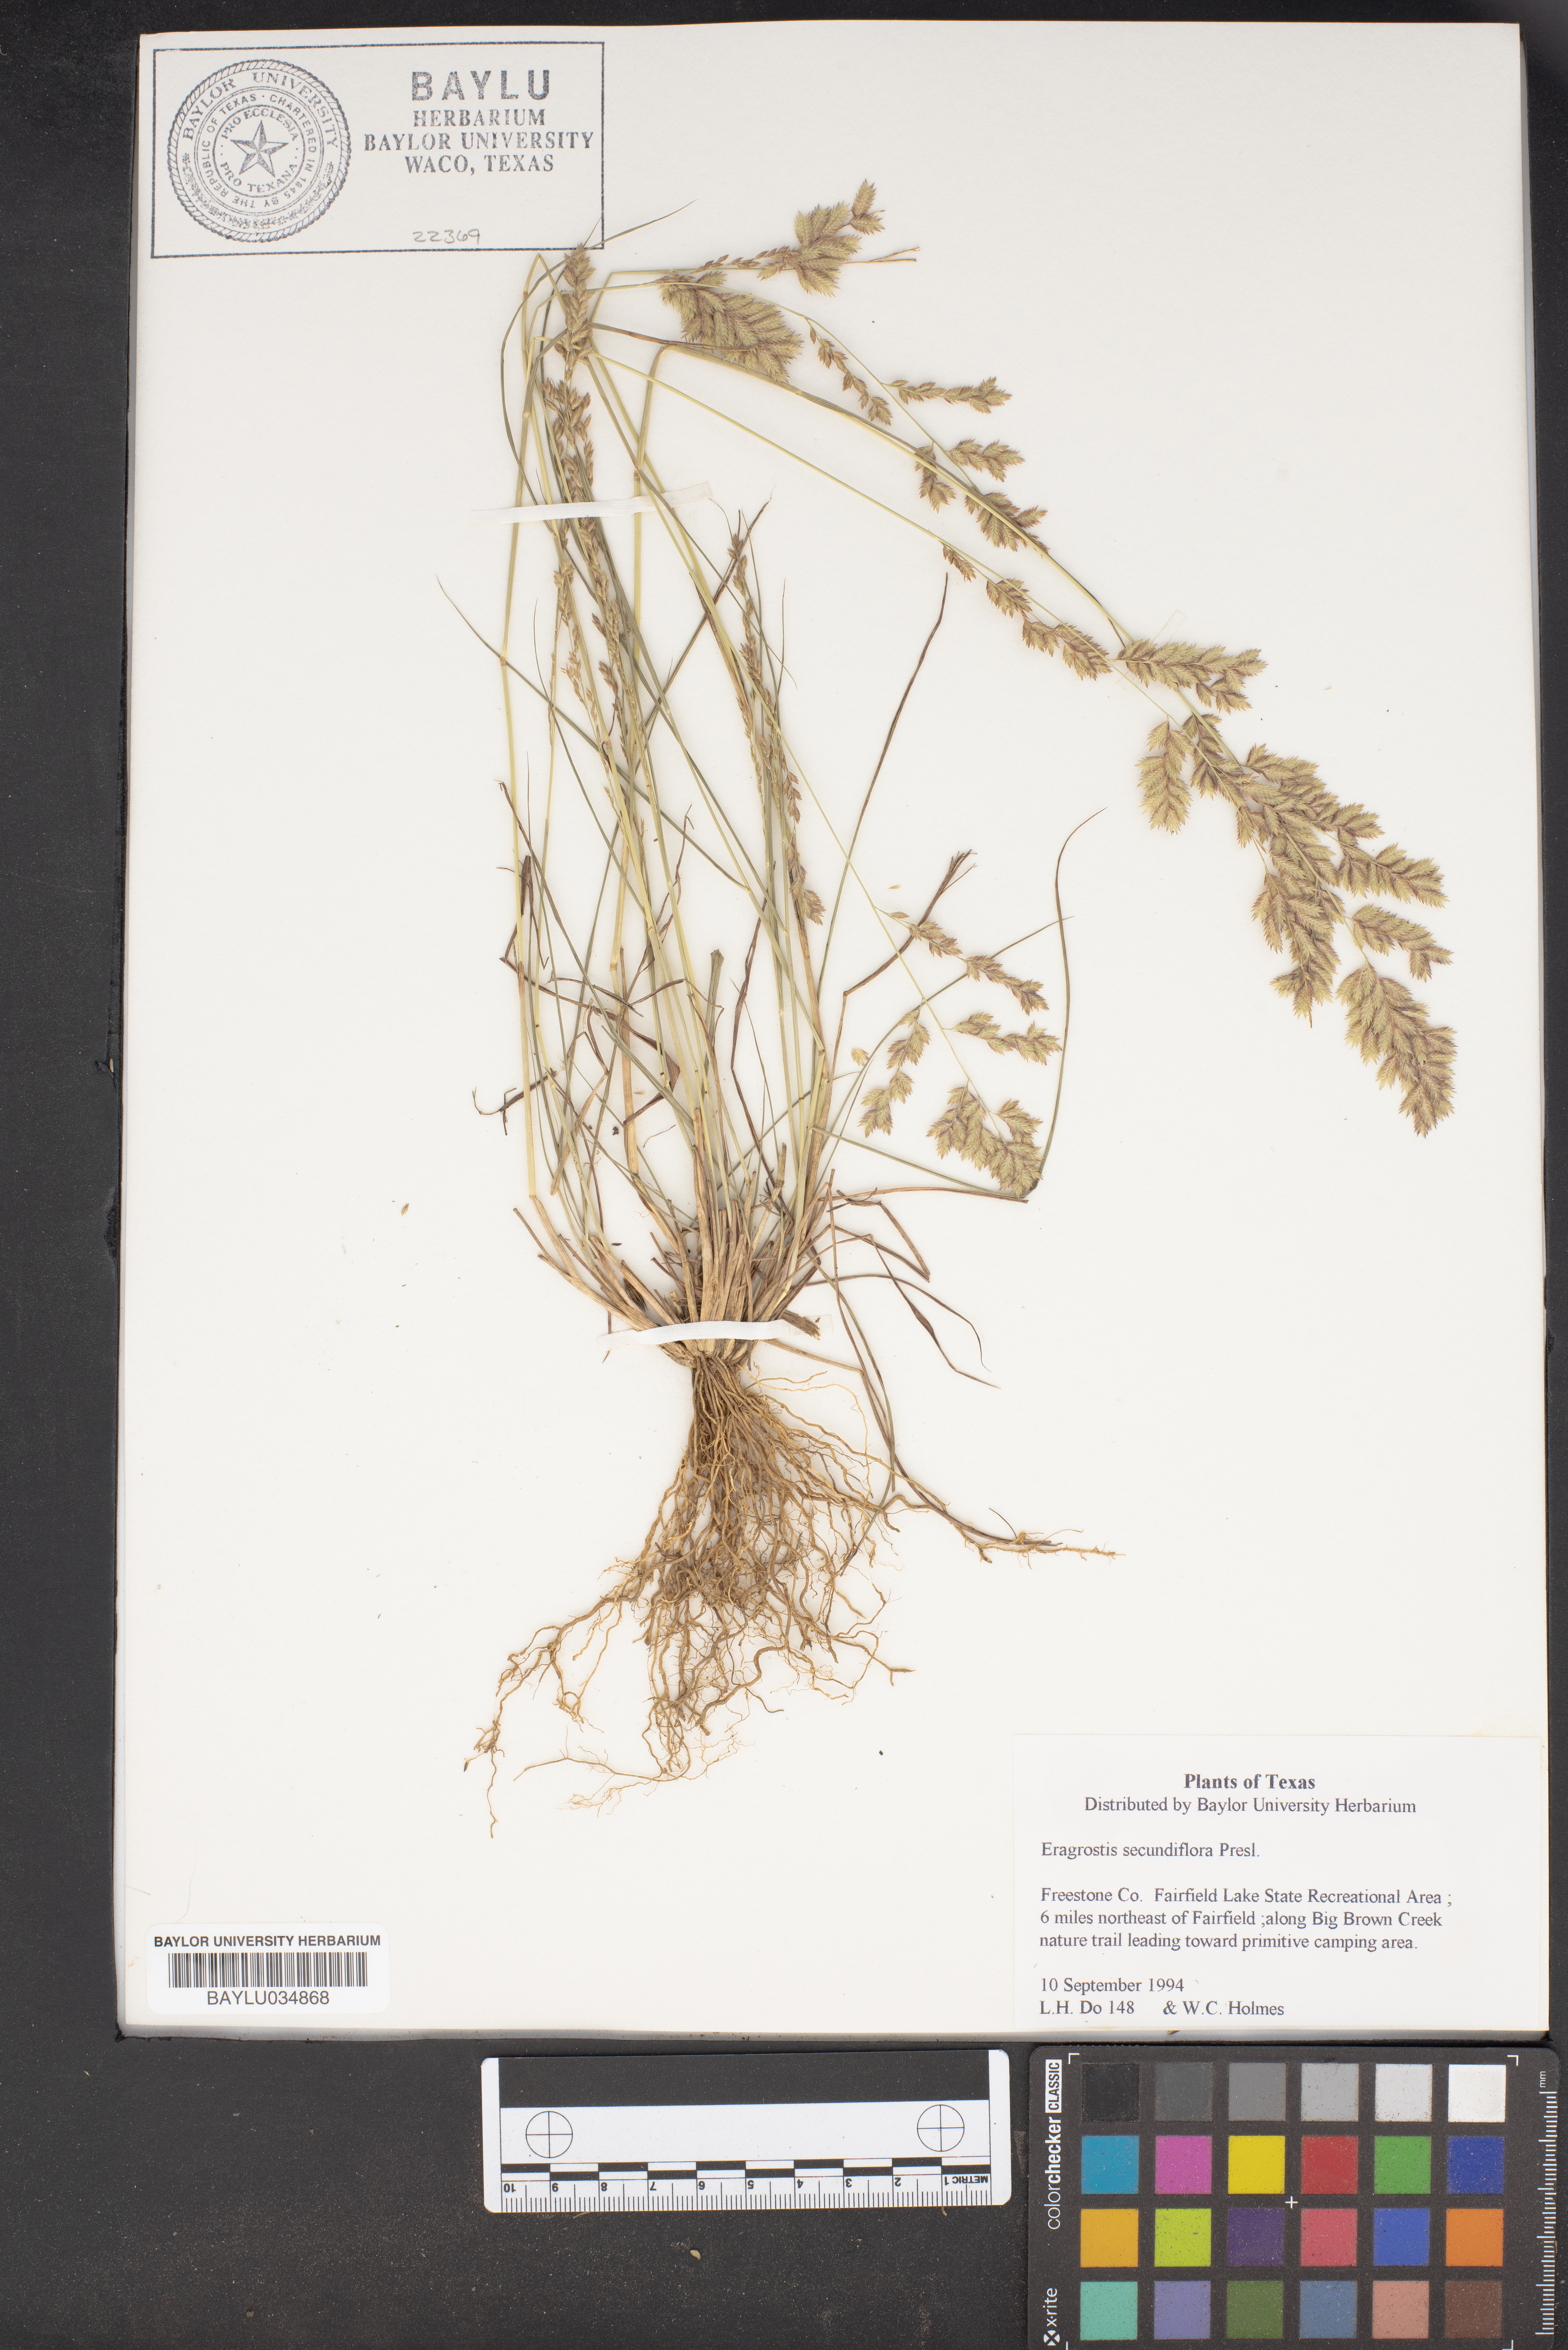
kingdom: Plantae
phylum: Tracheophyta
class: Liliopsida
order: Poales
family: Poaceae
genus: Eragrostis
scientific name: Eragrostis secundiflora
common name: Red love grass
